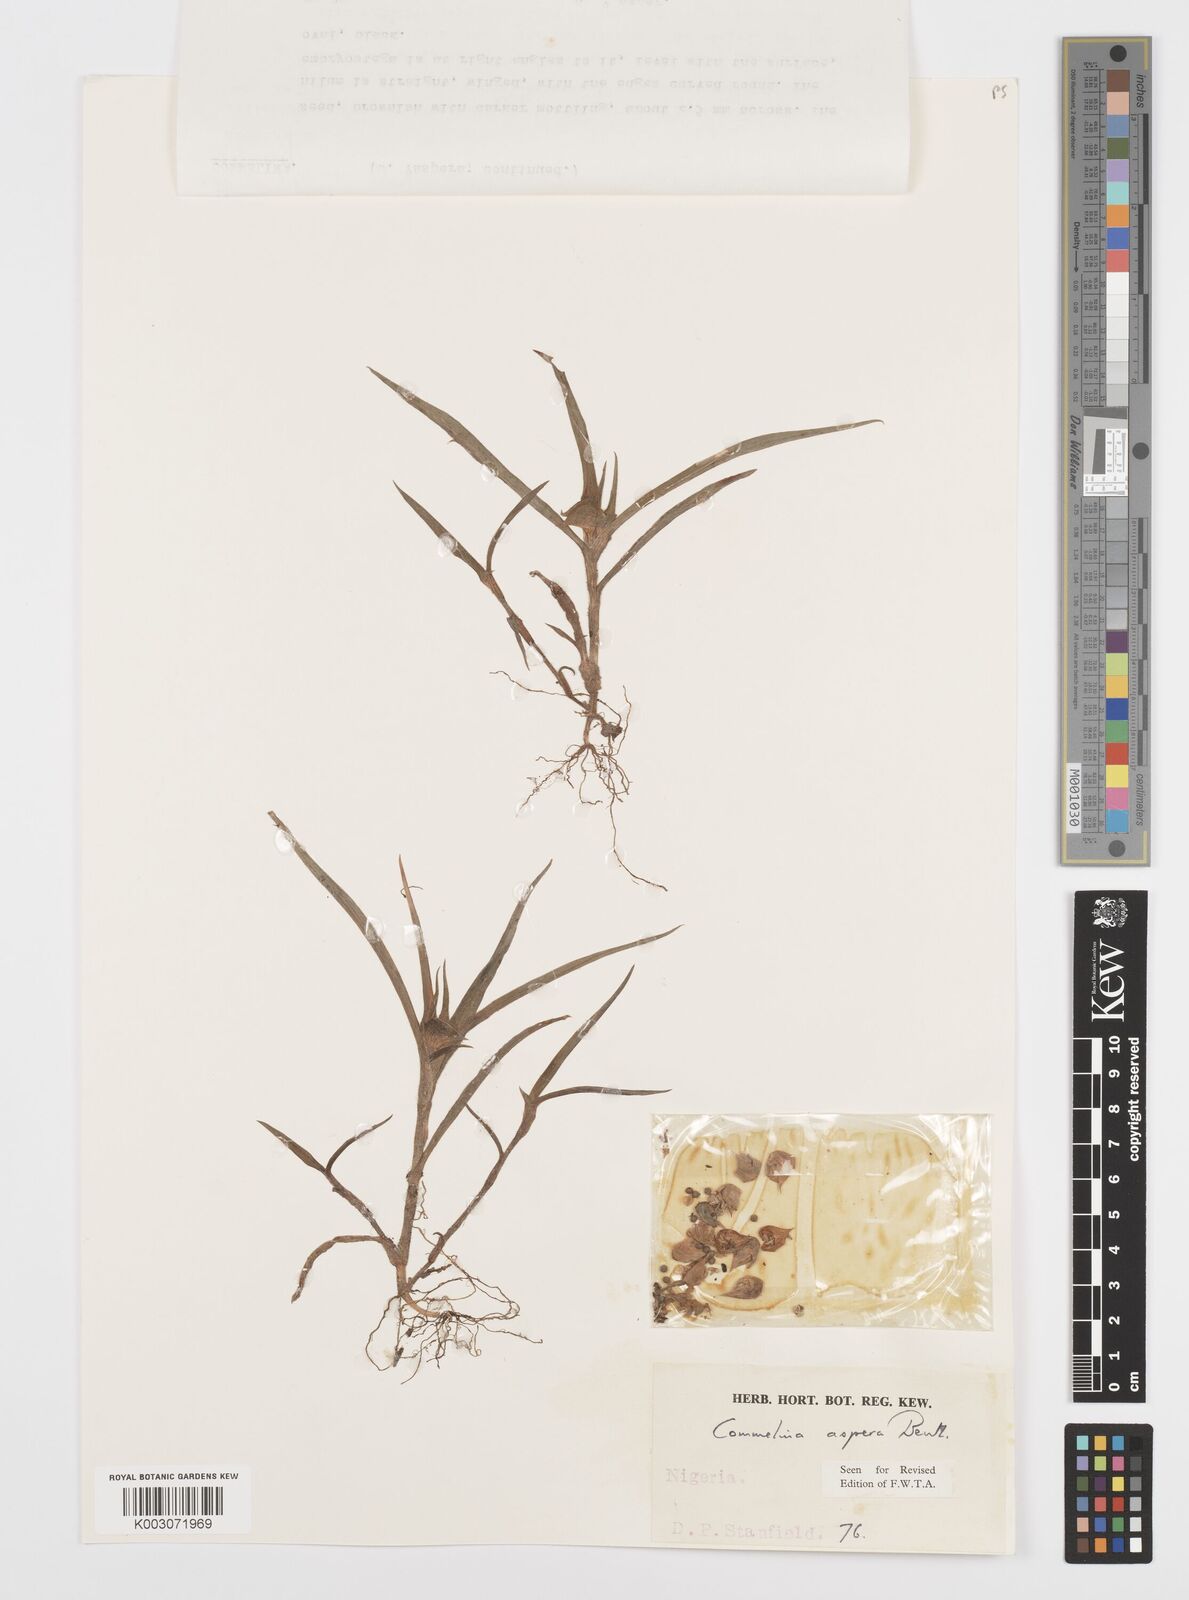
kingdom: Plantae
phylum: Tracheophyta
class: Liliopsida
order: Commelinales
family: Commelinaceae
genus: Commelina
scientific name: Commelina aspera
